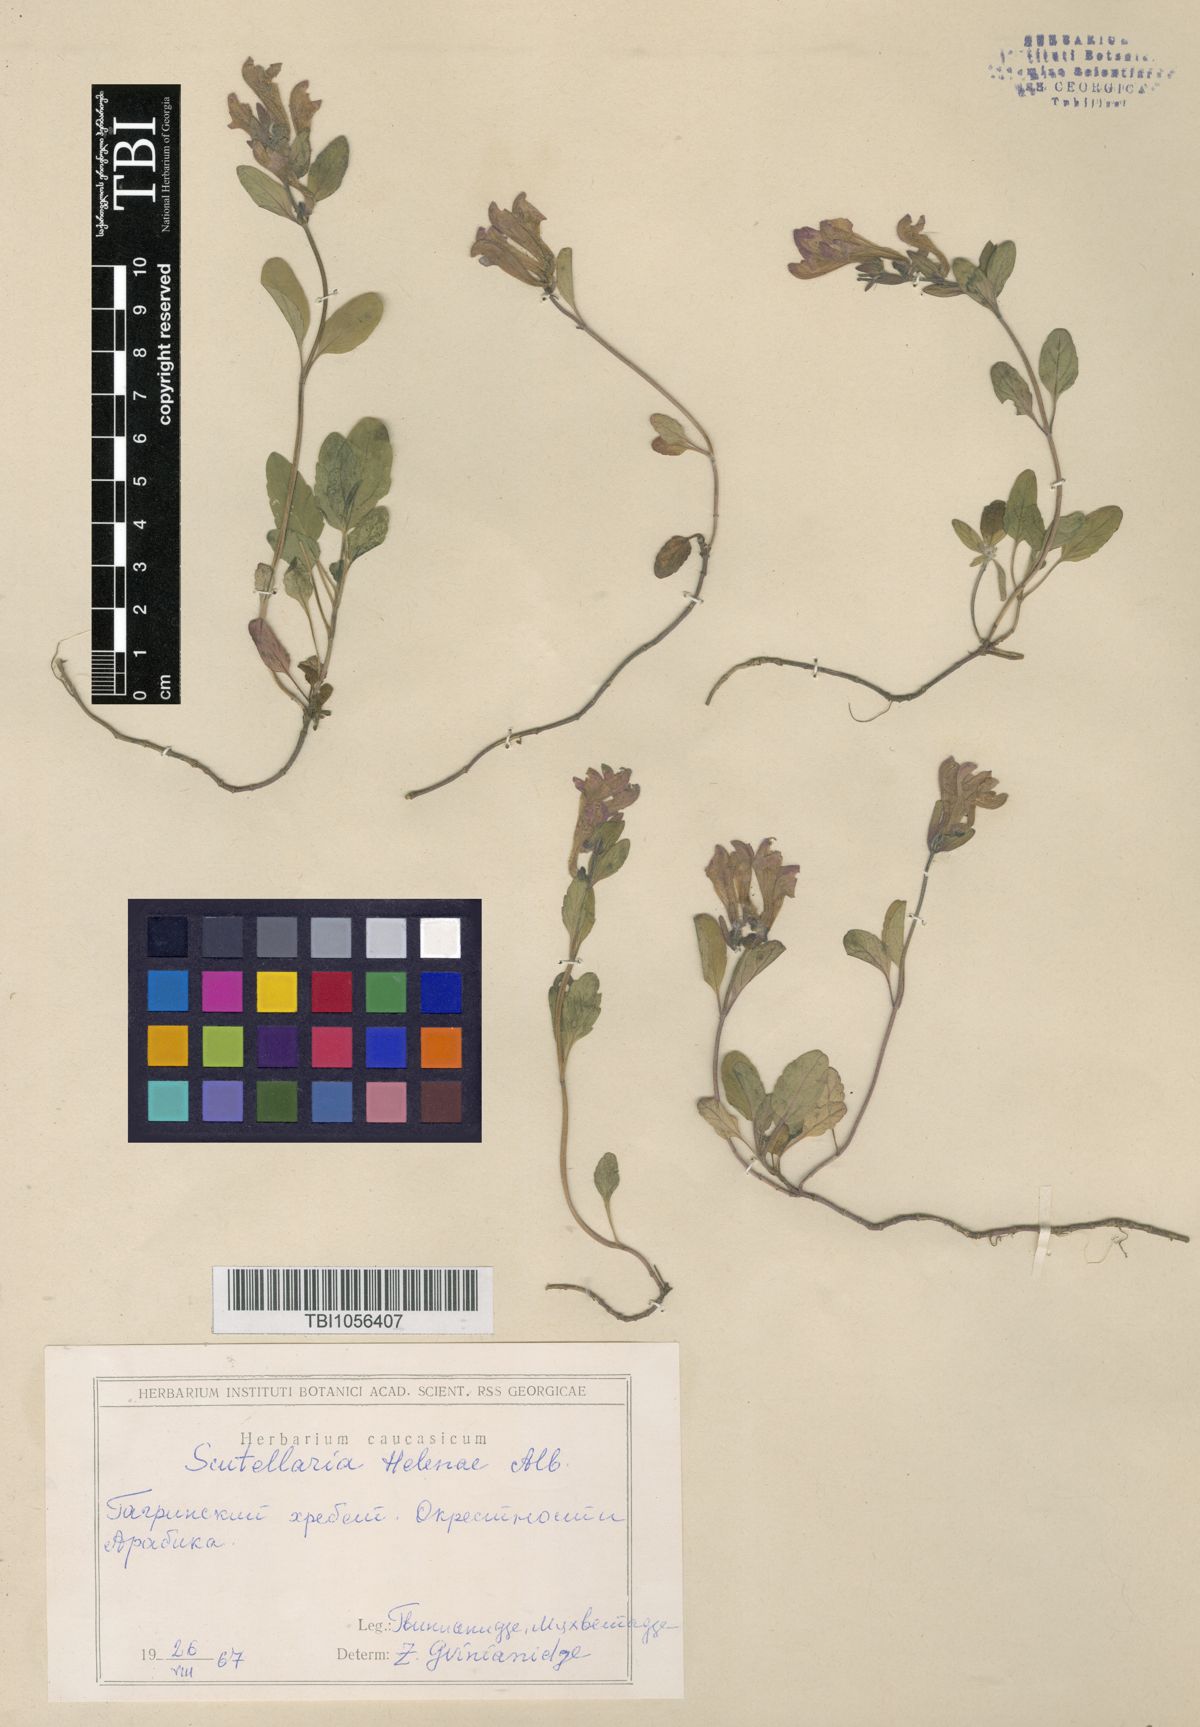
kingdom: Plantae
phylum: Tracheophyta
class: Magnoliopsida
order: Lamiales
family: Lamiaceae
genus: Scutellaria
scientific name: Scutellaria helenae
